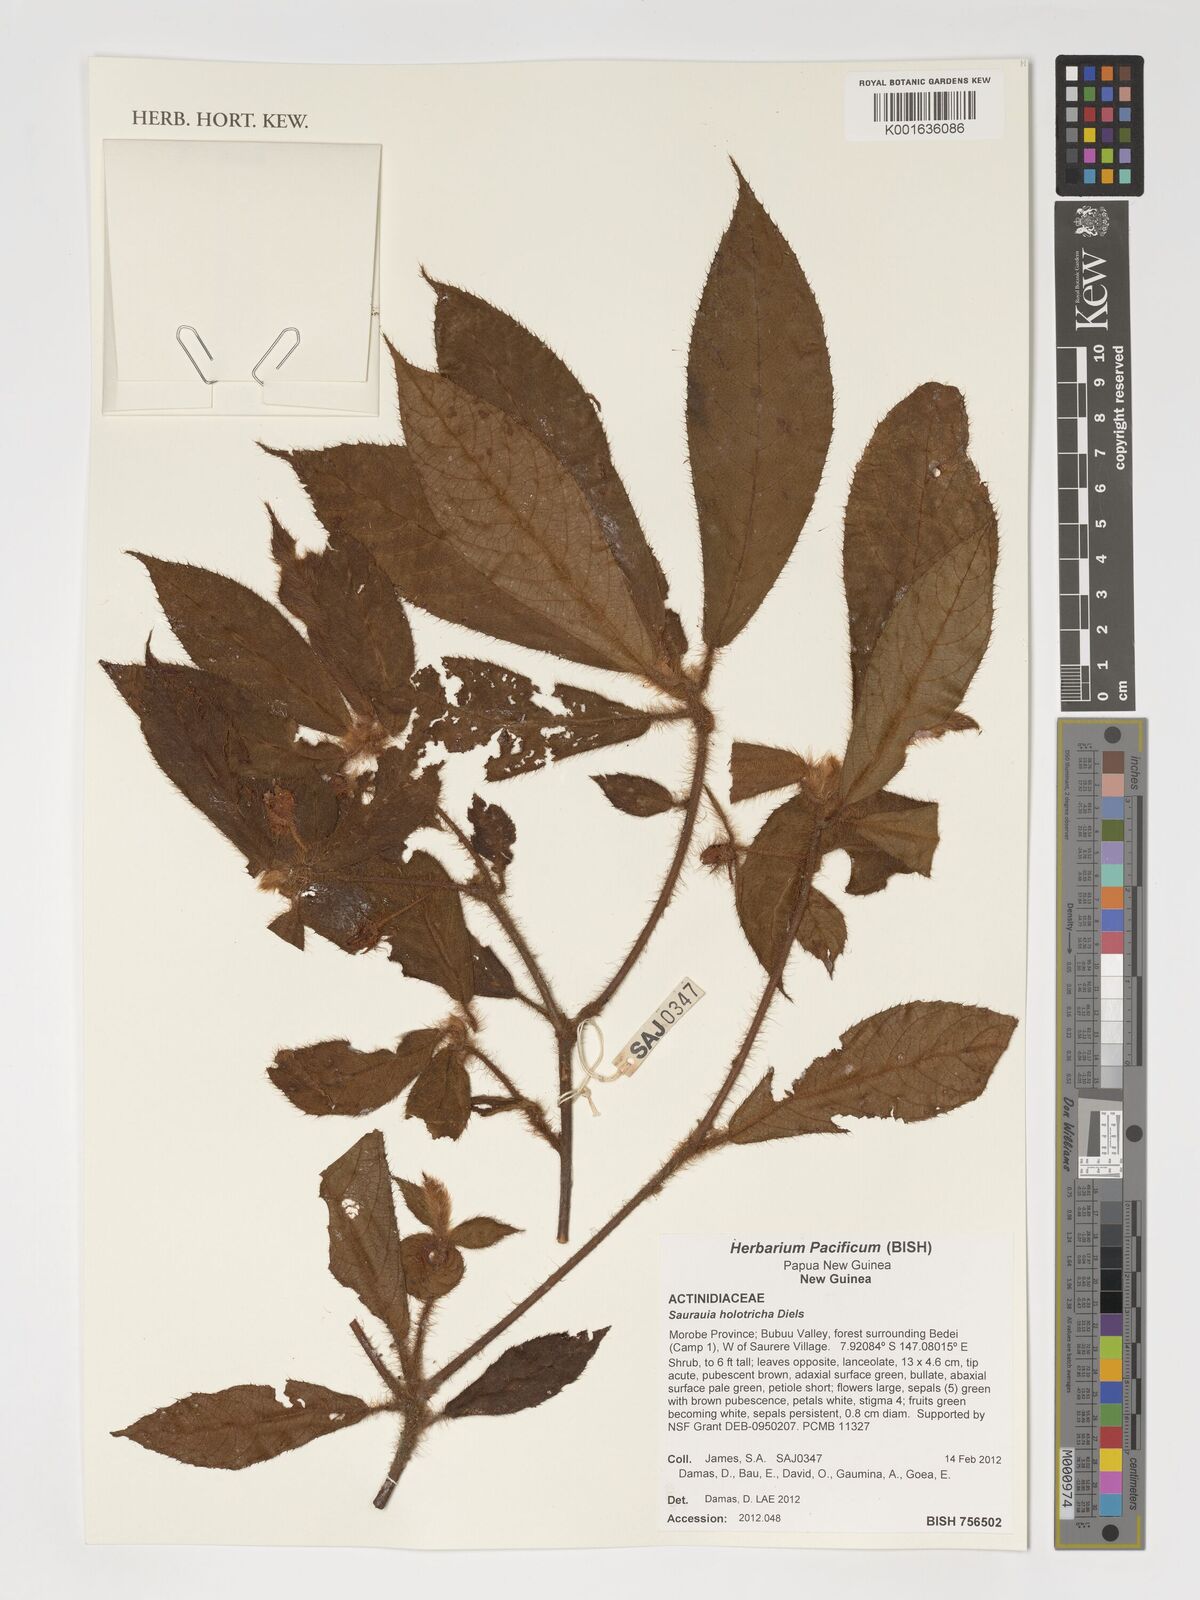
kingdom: Plantae
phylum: Tracheophyta
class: Magnoliopsida
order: Ericales
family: Actinidiaceae
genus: Saurauia
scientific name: Saurauia
